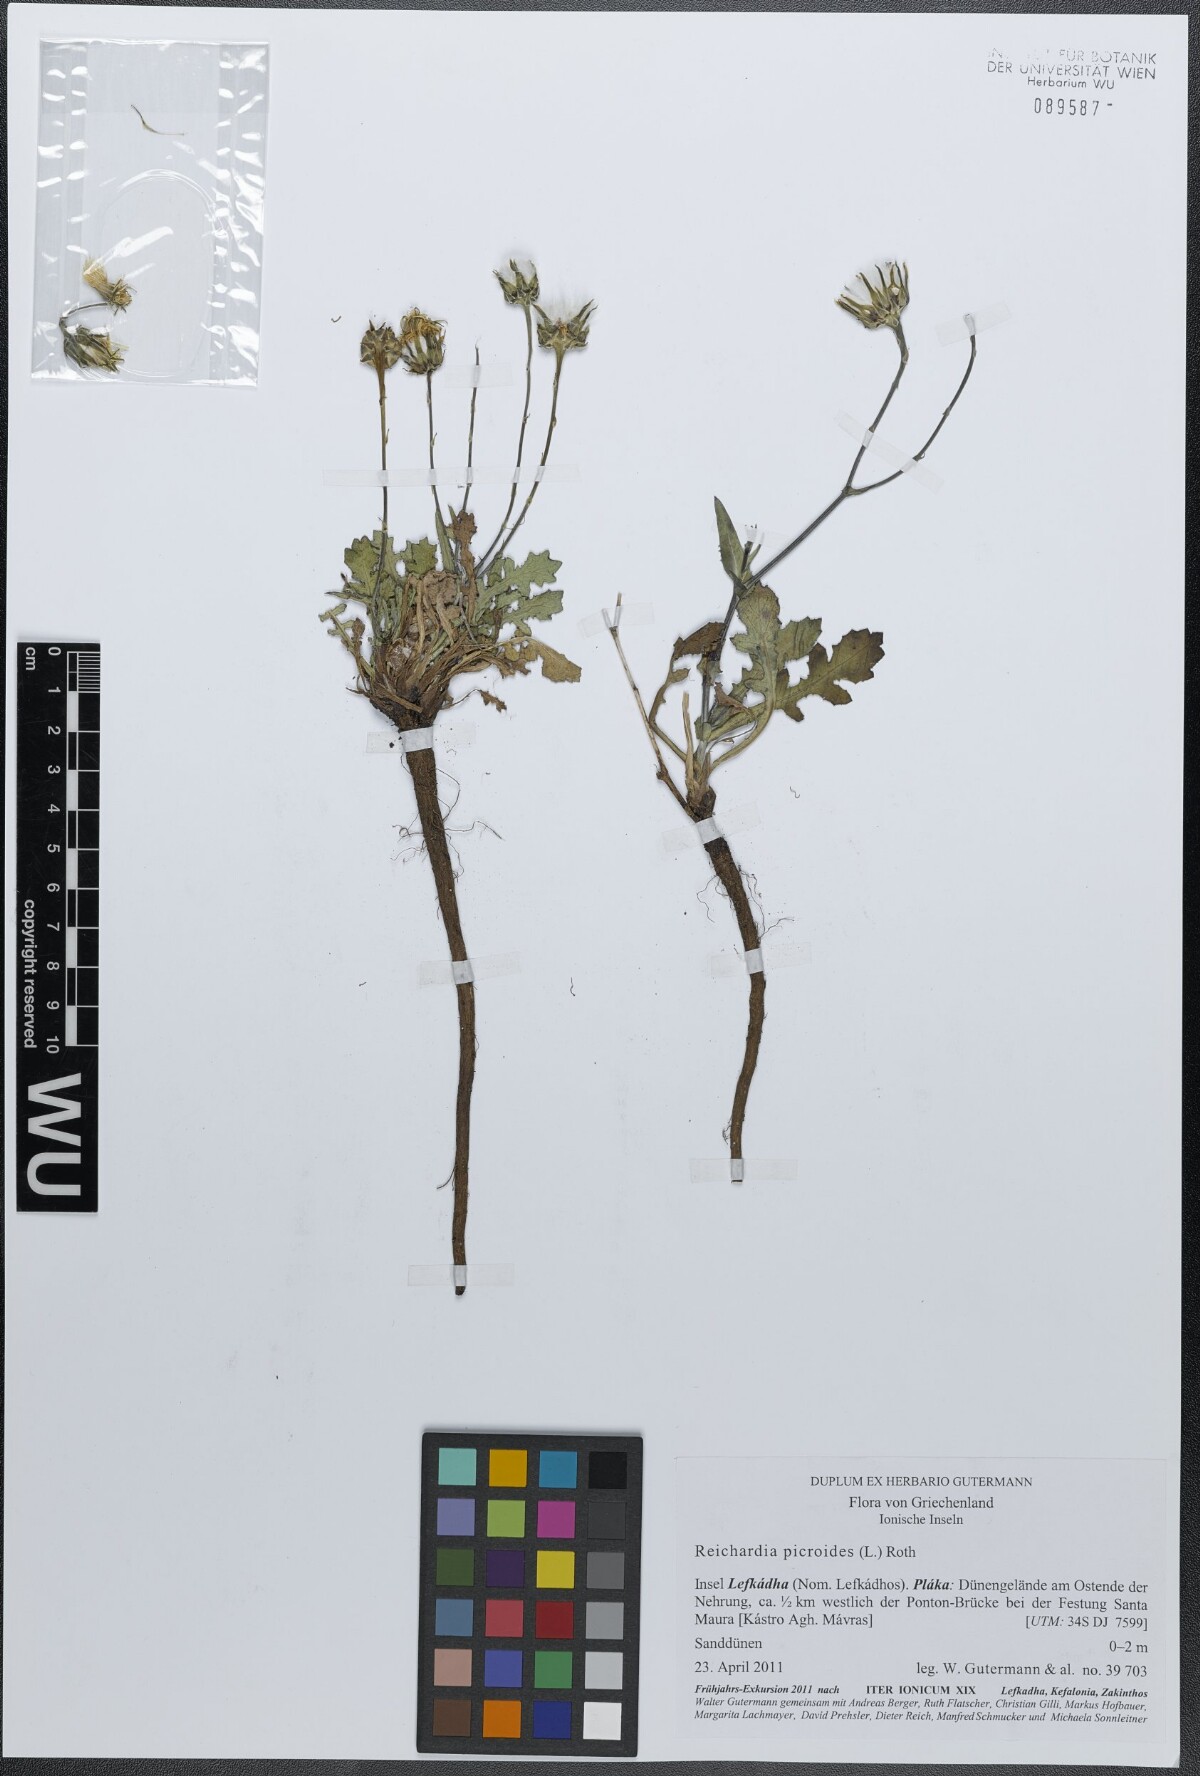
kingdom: Plantae
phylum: Tracheophyta
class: Magnoliopsida
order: Asterales
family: Asteraceae
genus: Reichardia
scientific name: Reichardia picroides
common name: Common brighteyes
